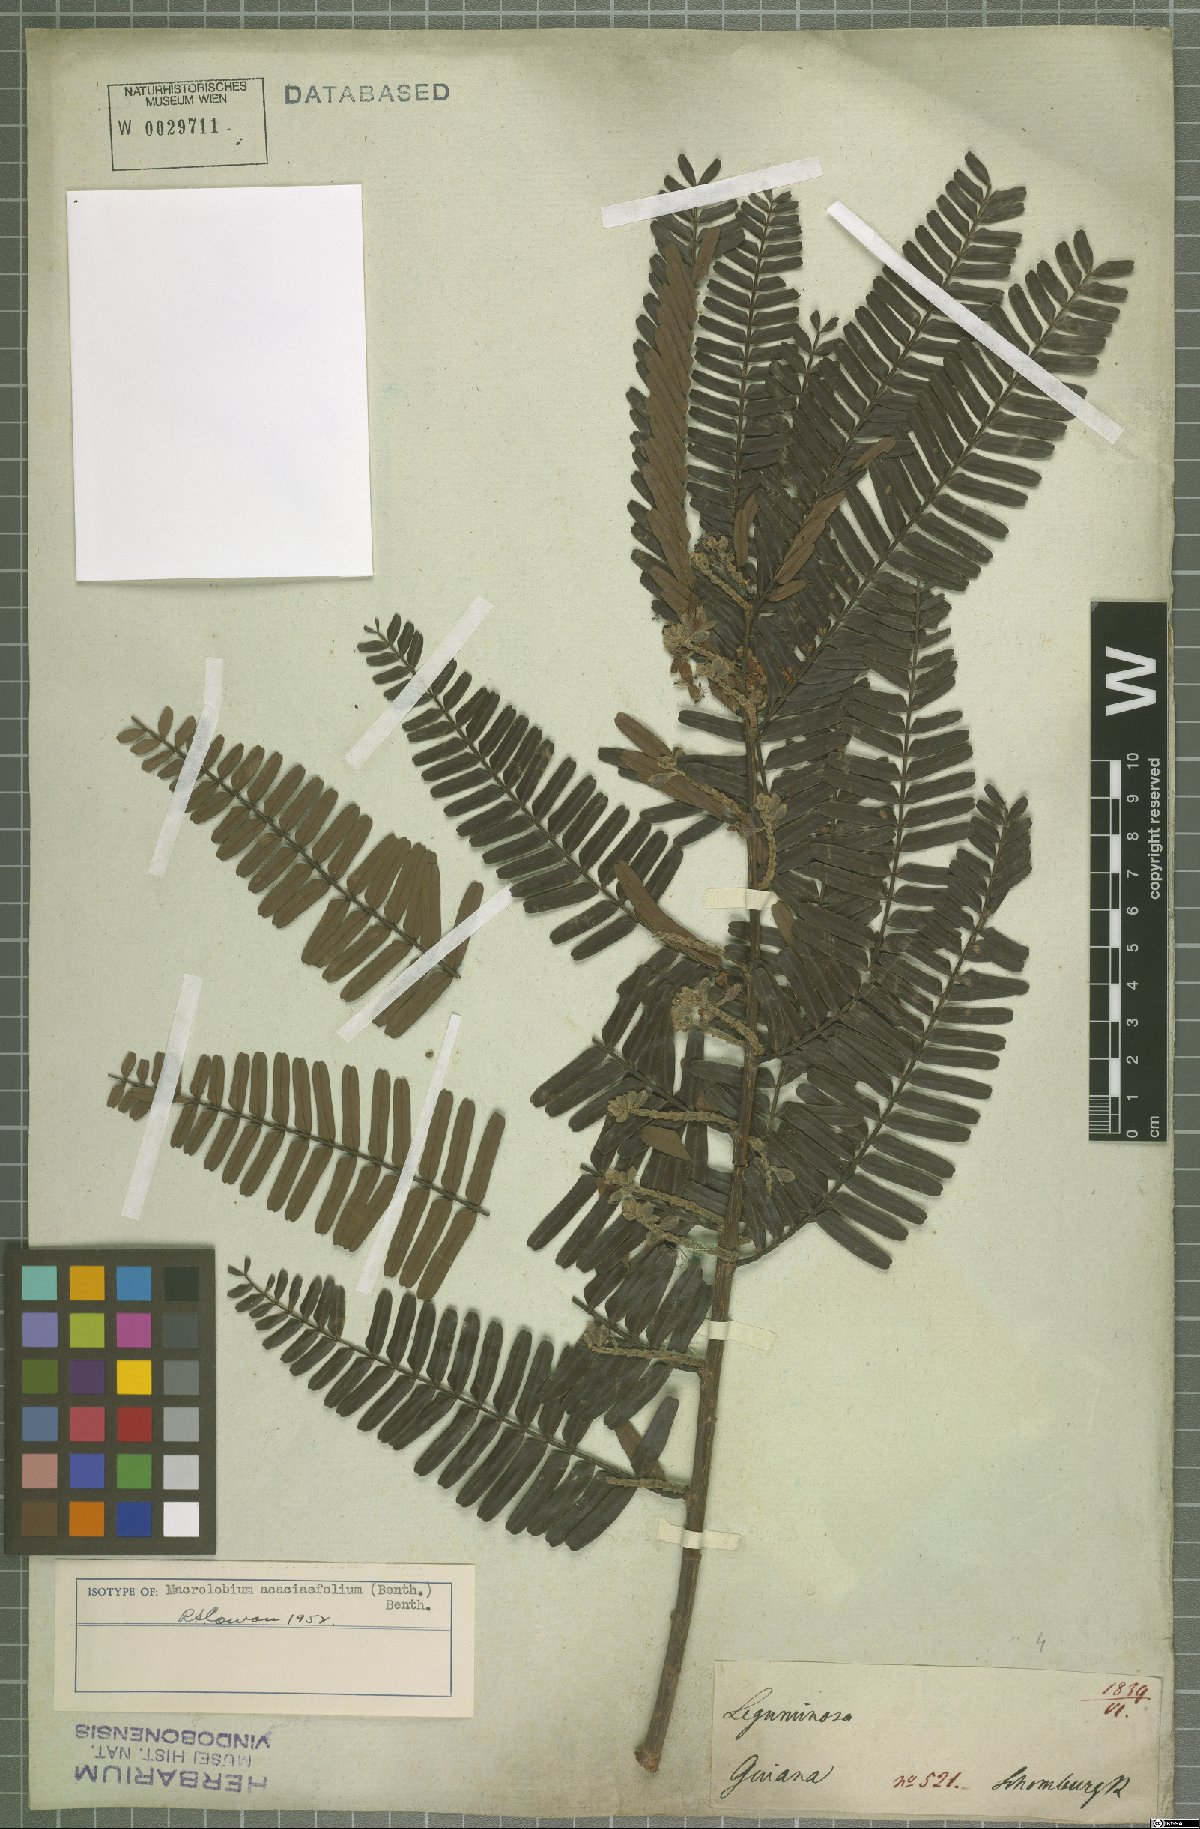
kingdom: Plantae
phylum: Tracheophyta
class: Magnoliopsida
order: Fabales
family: Fabaceae
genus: Macrolobium
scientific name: Macrolobium acaciifolium
